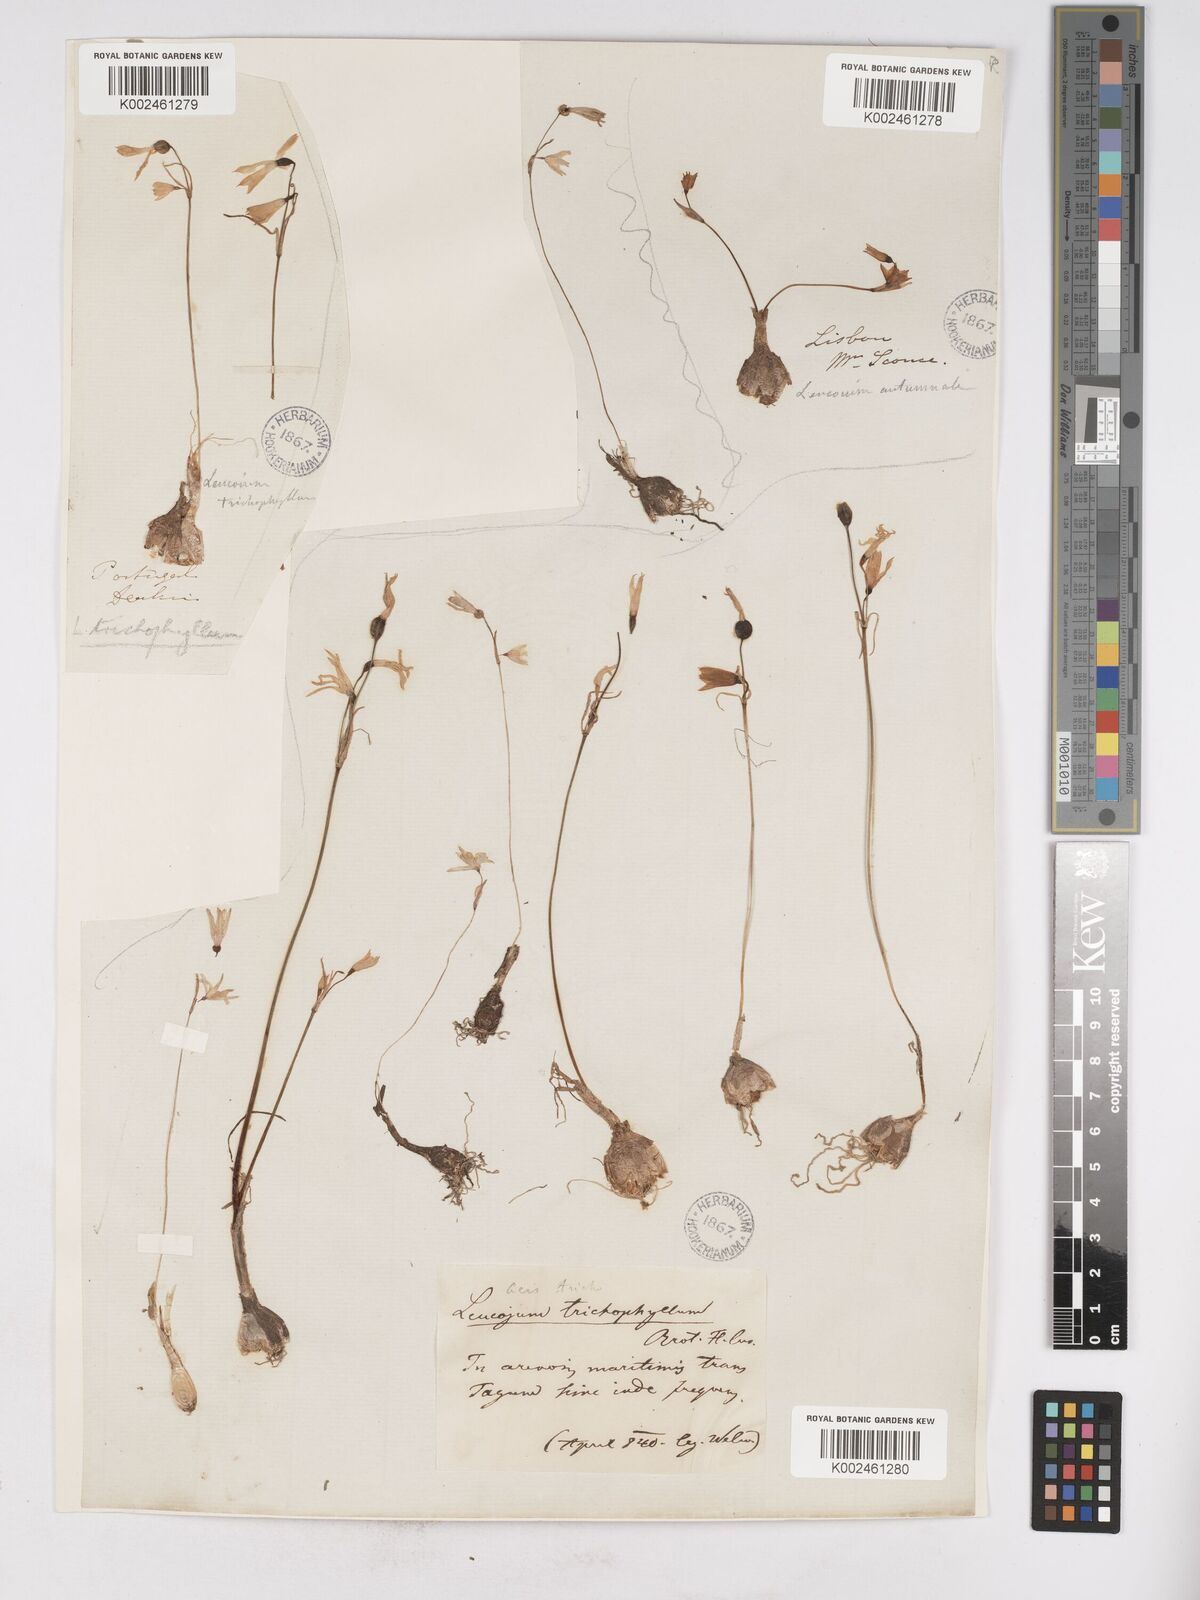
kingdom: Plantae
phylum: Tracheophyta
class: Liliopsida
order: Asparagales
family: Amaryllidaceae
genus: Acis
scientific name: Acis trichophylla
